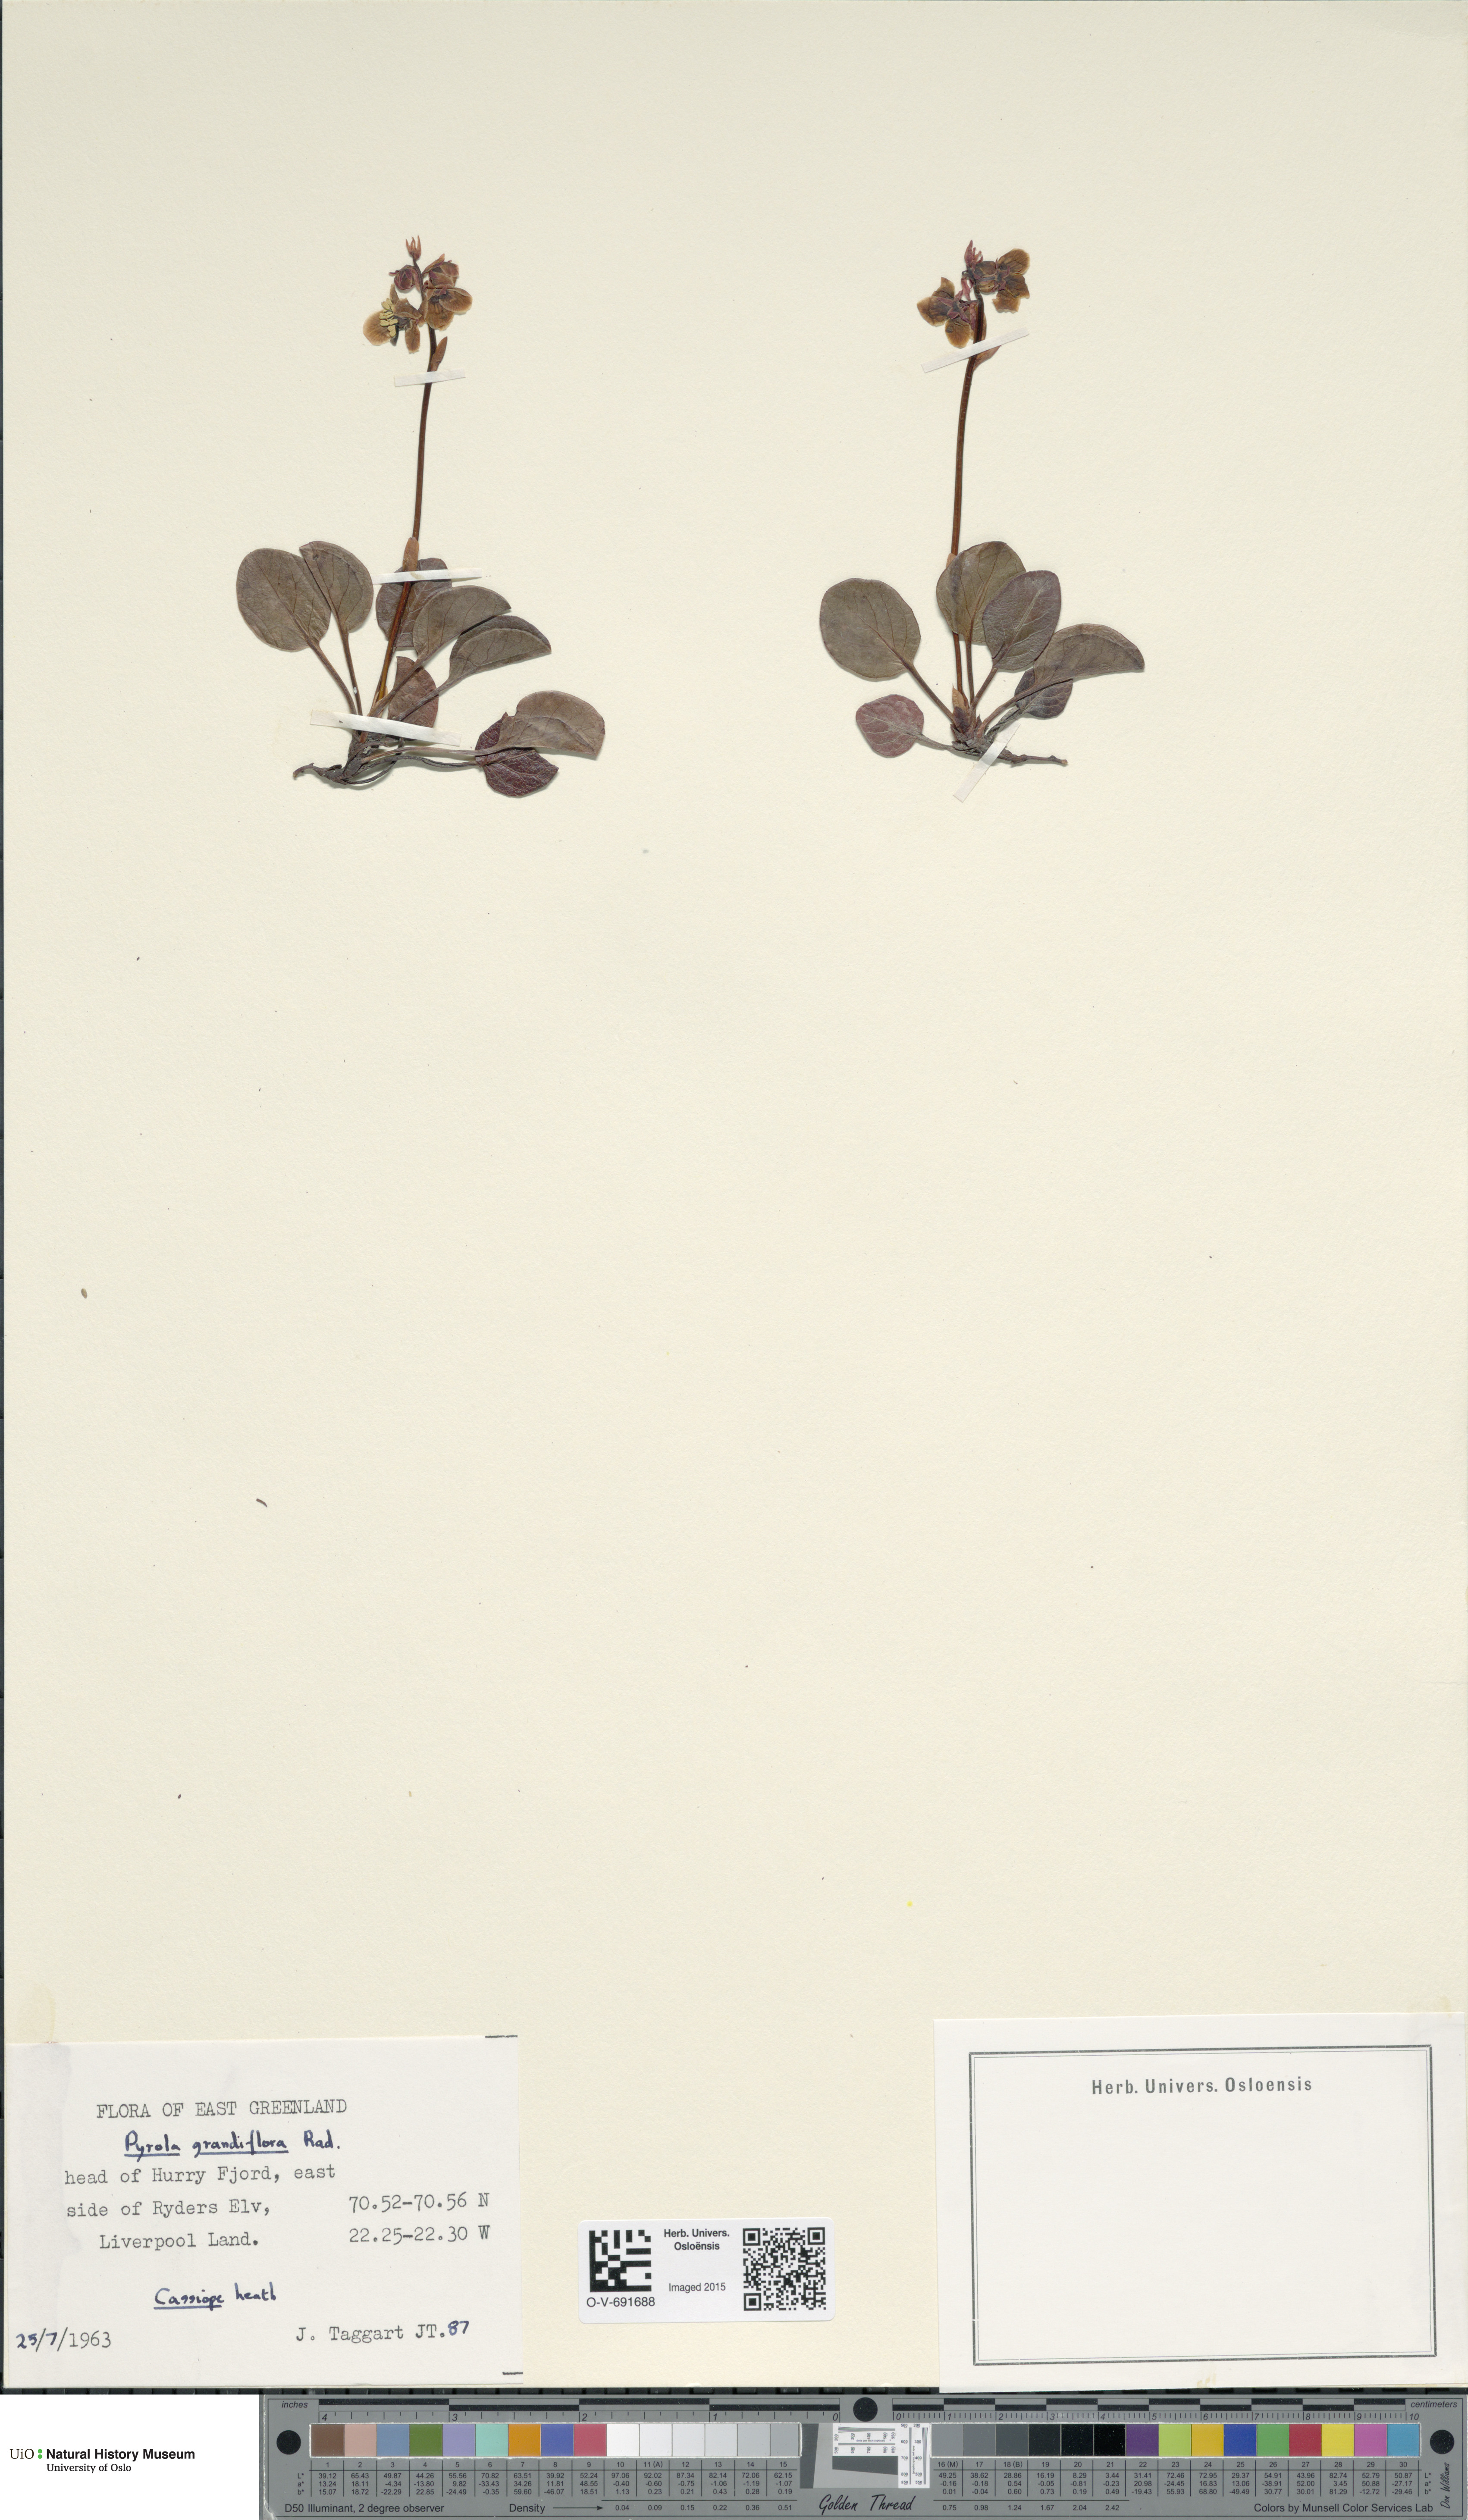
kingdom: Plantae
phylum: Tracheophyta
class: Magnoliopsida
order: Ericales
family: Ericaceae
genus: Pyrola
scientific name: Pyrola grandiflora
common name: Arctic pyrola
